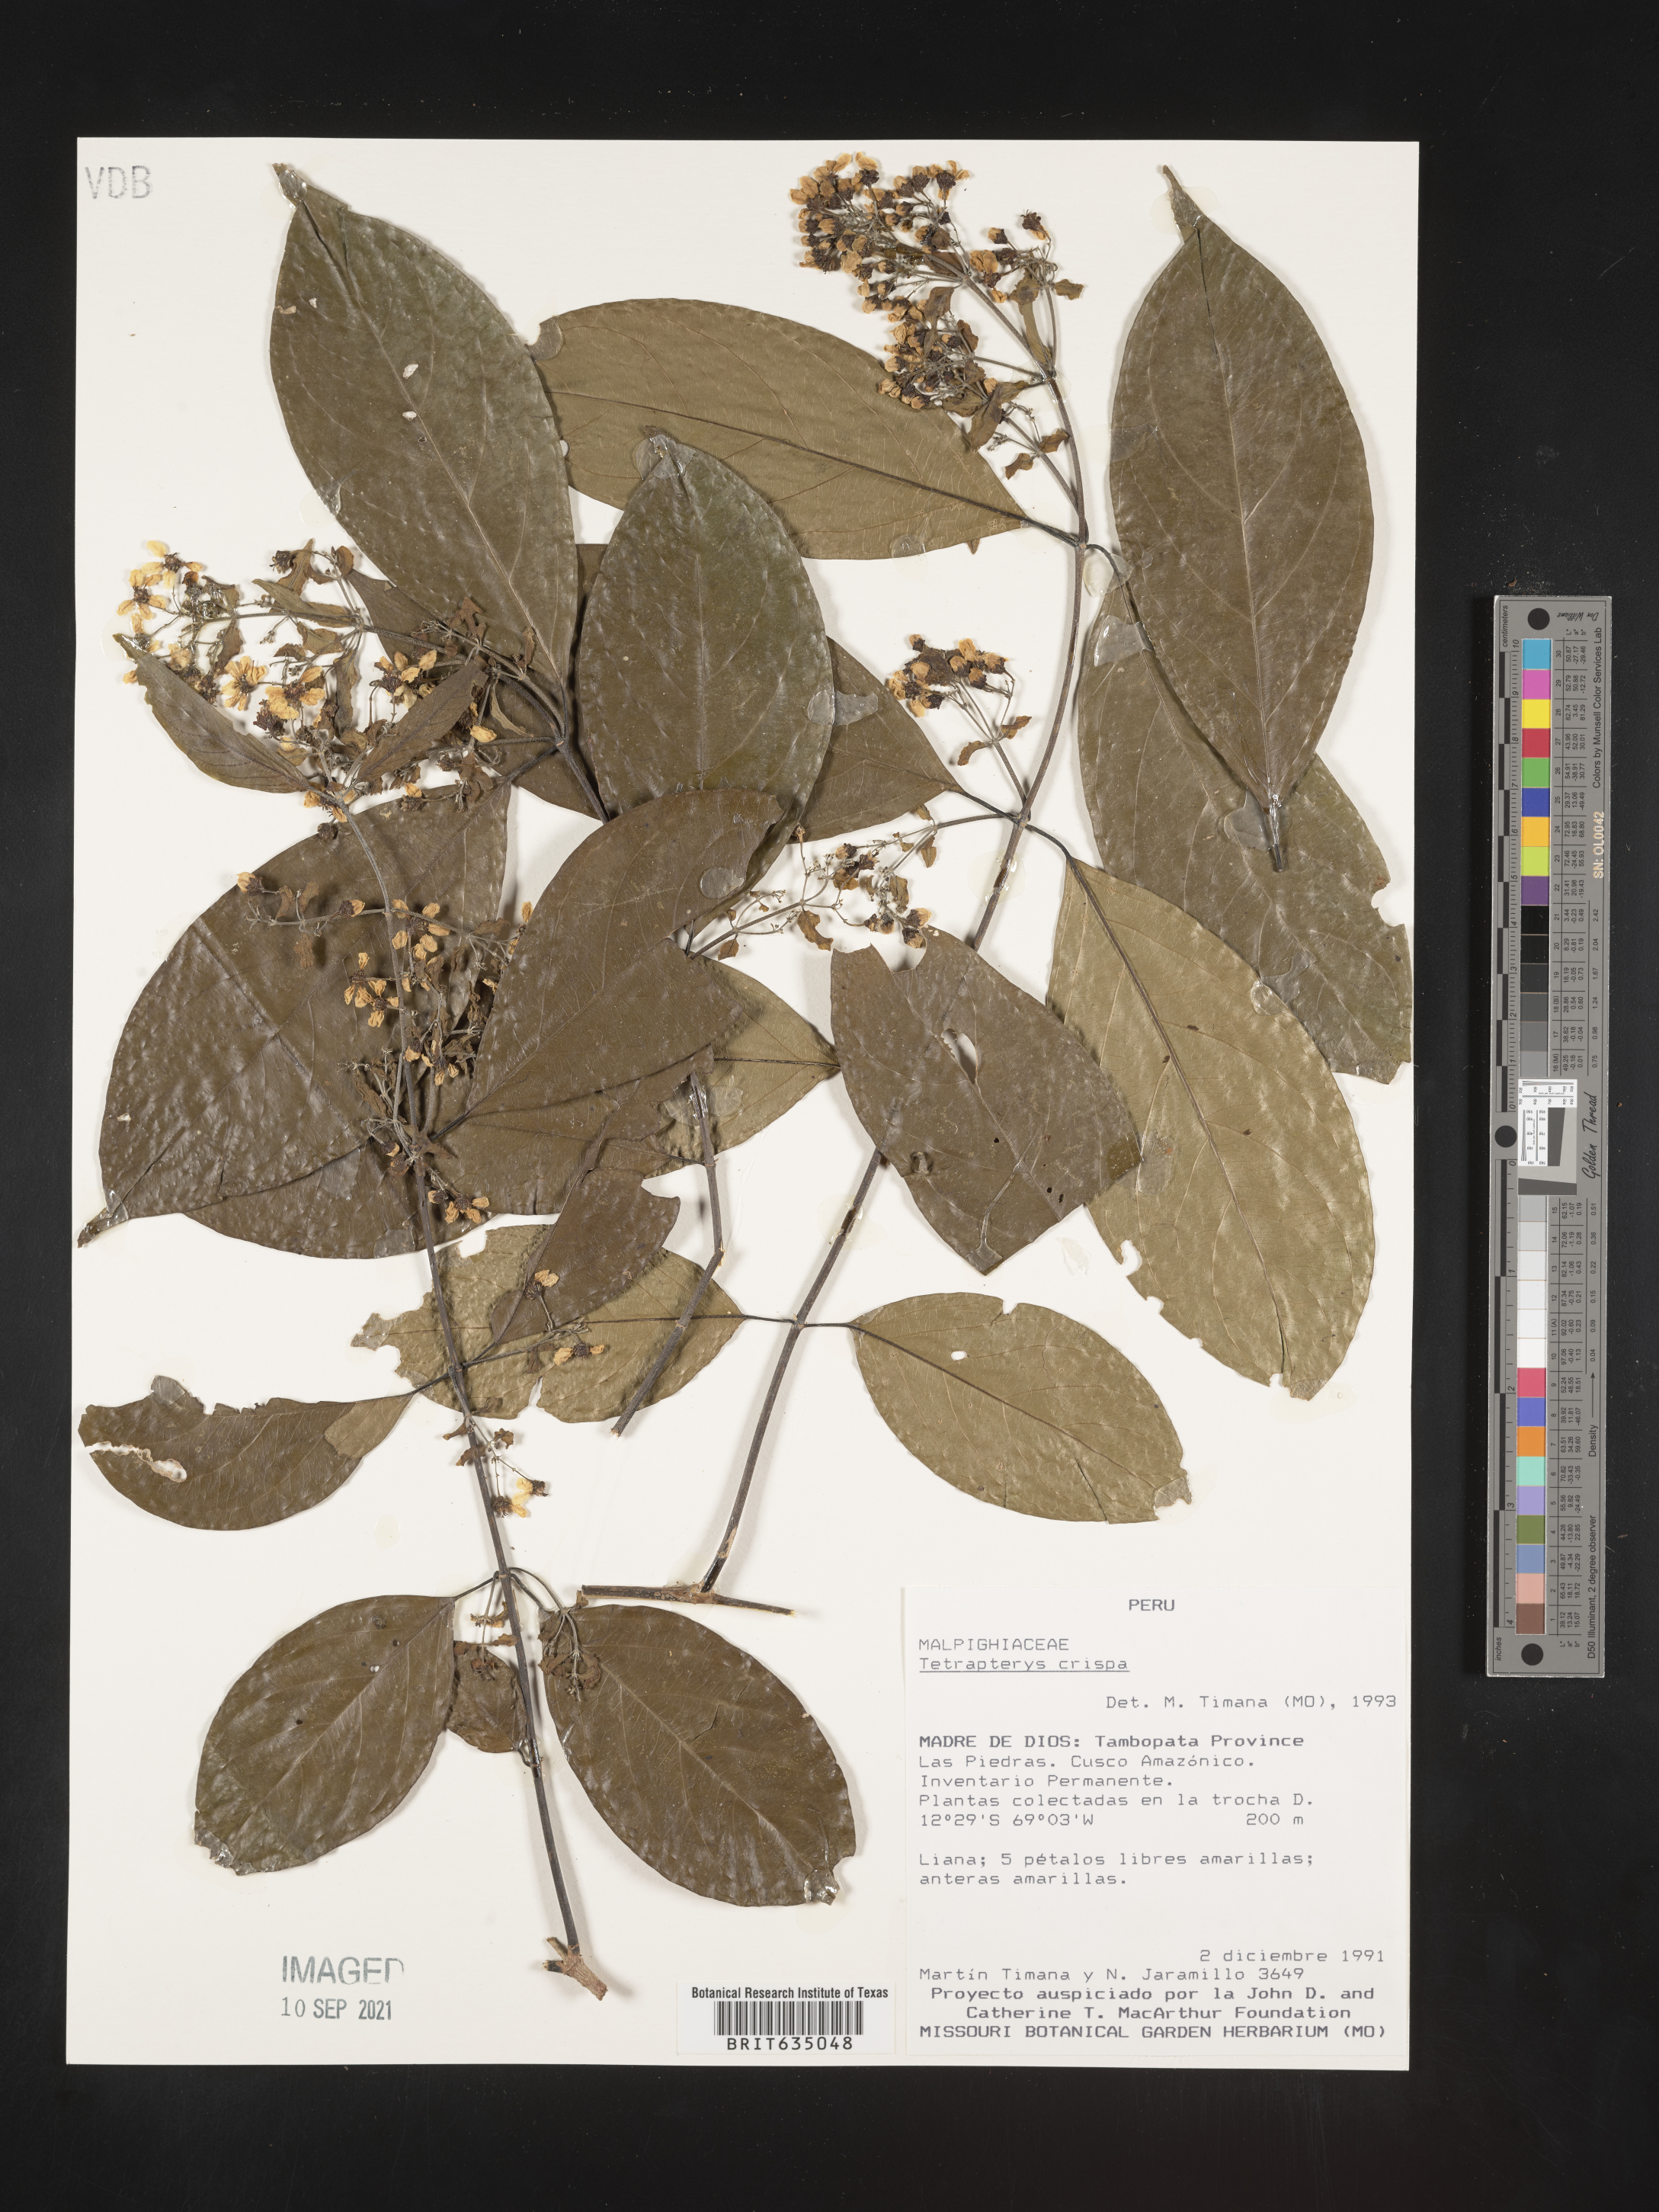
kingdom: Plantae
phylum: Tracheophyta
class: Magnoliopsida
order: Ericales
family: Styracaceae
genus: Tetrapteris
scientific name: Tetrapteris
